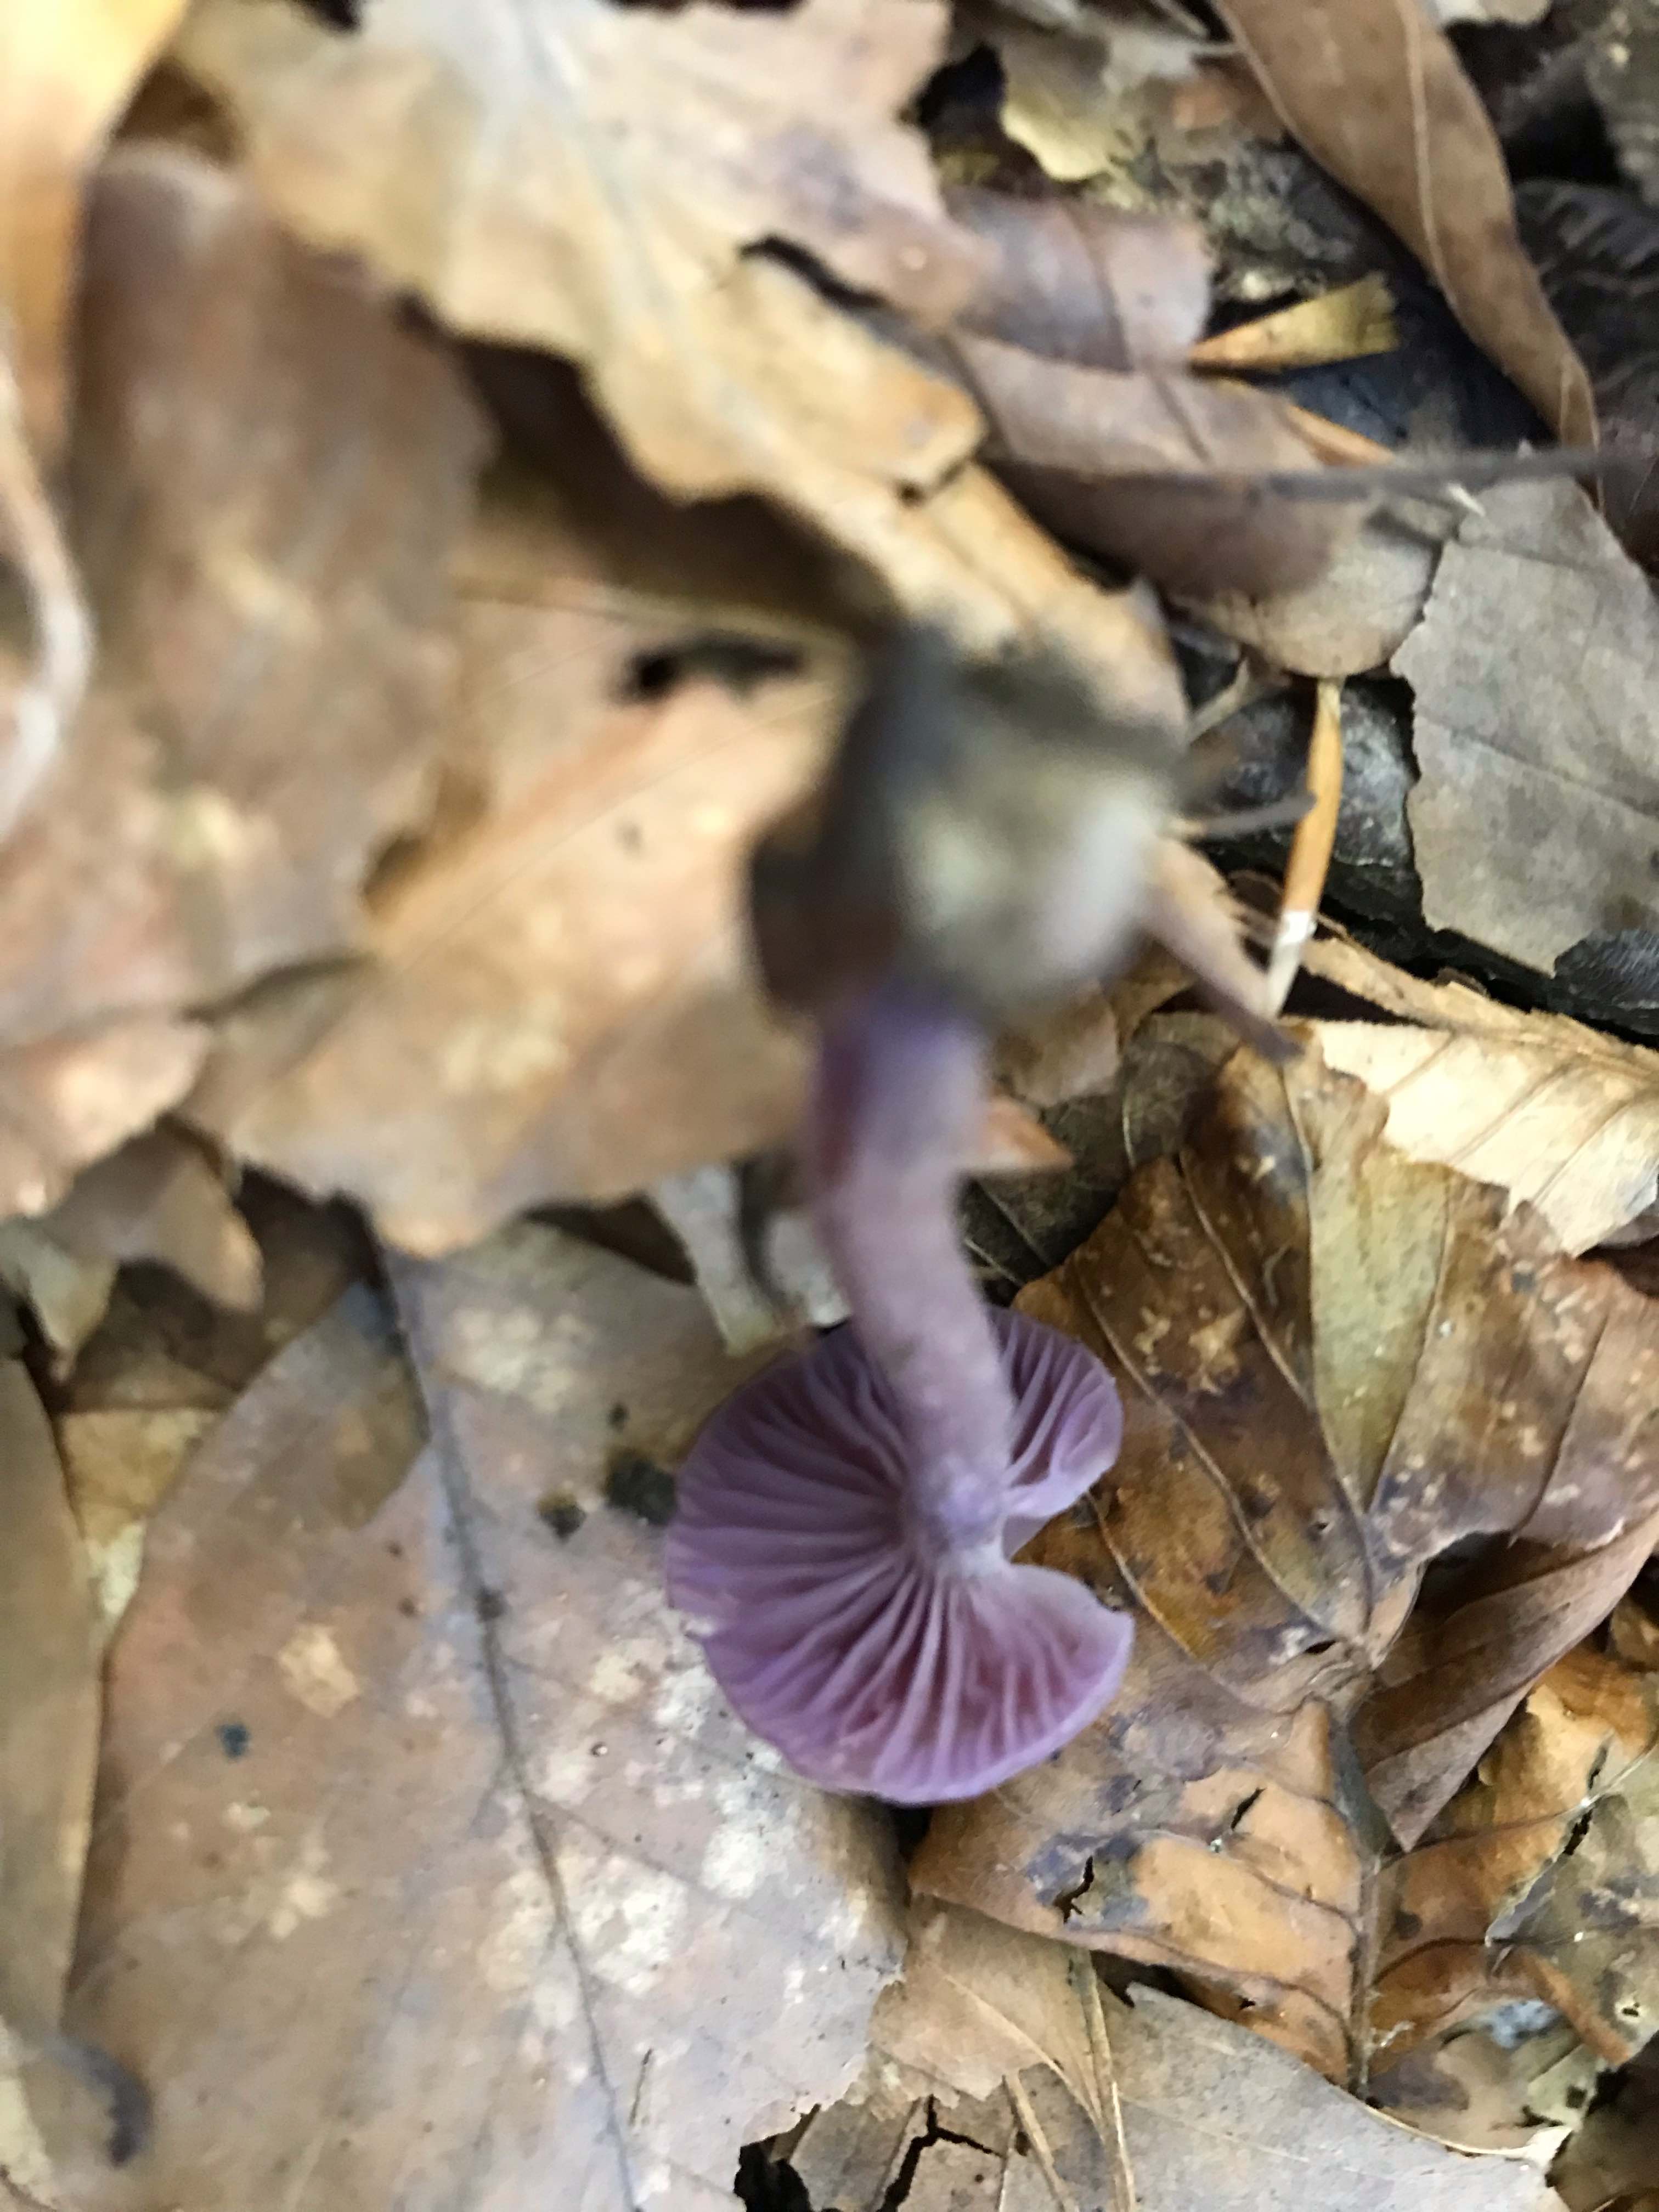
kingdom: Fungi
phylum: Basidiomycota
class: Agaricomycetes
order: Agaricales
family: Hydnangiaceae
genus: Laccaria
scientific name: Laccaria amethystina
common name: violet ametysthat
